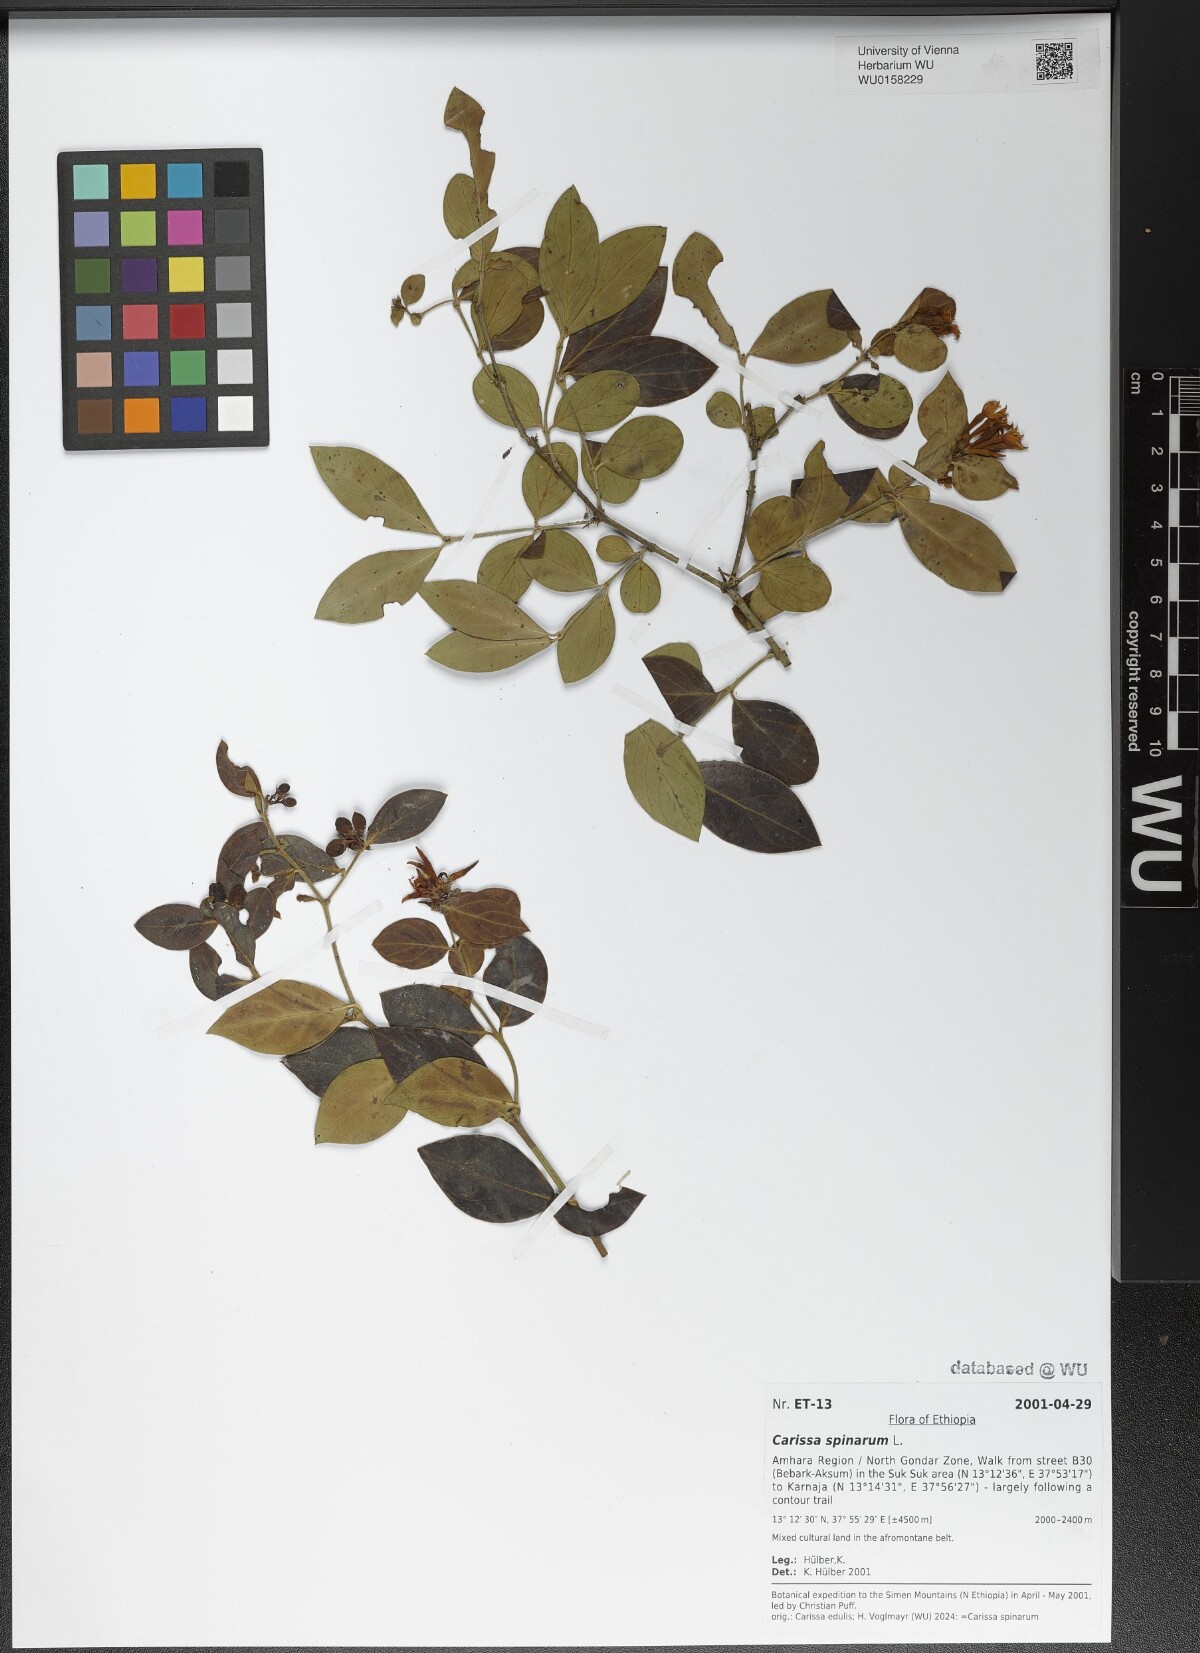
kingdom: Plantae
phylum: Tracheophyta
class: Magnoliopsida
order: Gentianales
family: Apocynaceae
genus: Carissa
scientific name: Carissa spinarum
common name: Egyptian carissa
